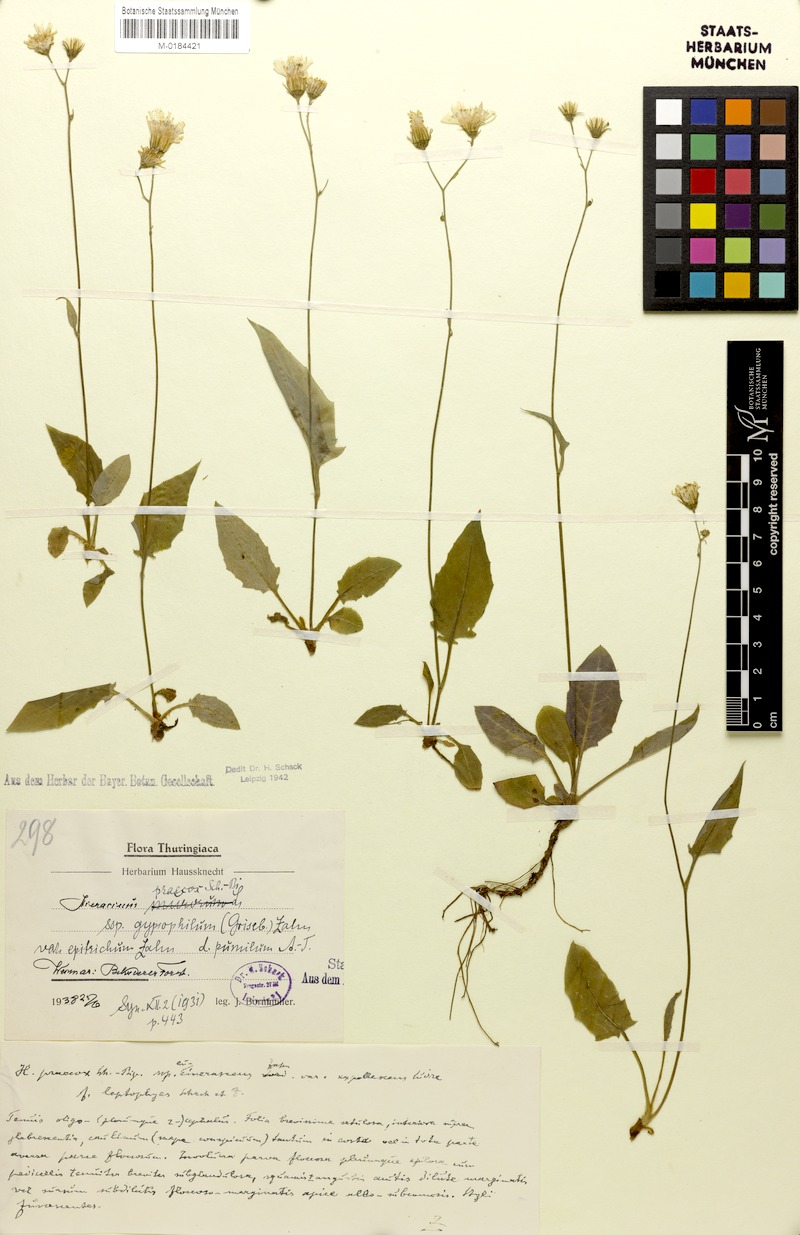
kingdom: Plantae
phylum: Tracheophyta
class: Magnoliopsida
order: Asterales
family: Asteraceae
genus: Hieracium
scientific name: Hieracium glaucinum
